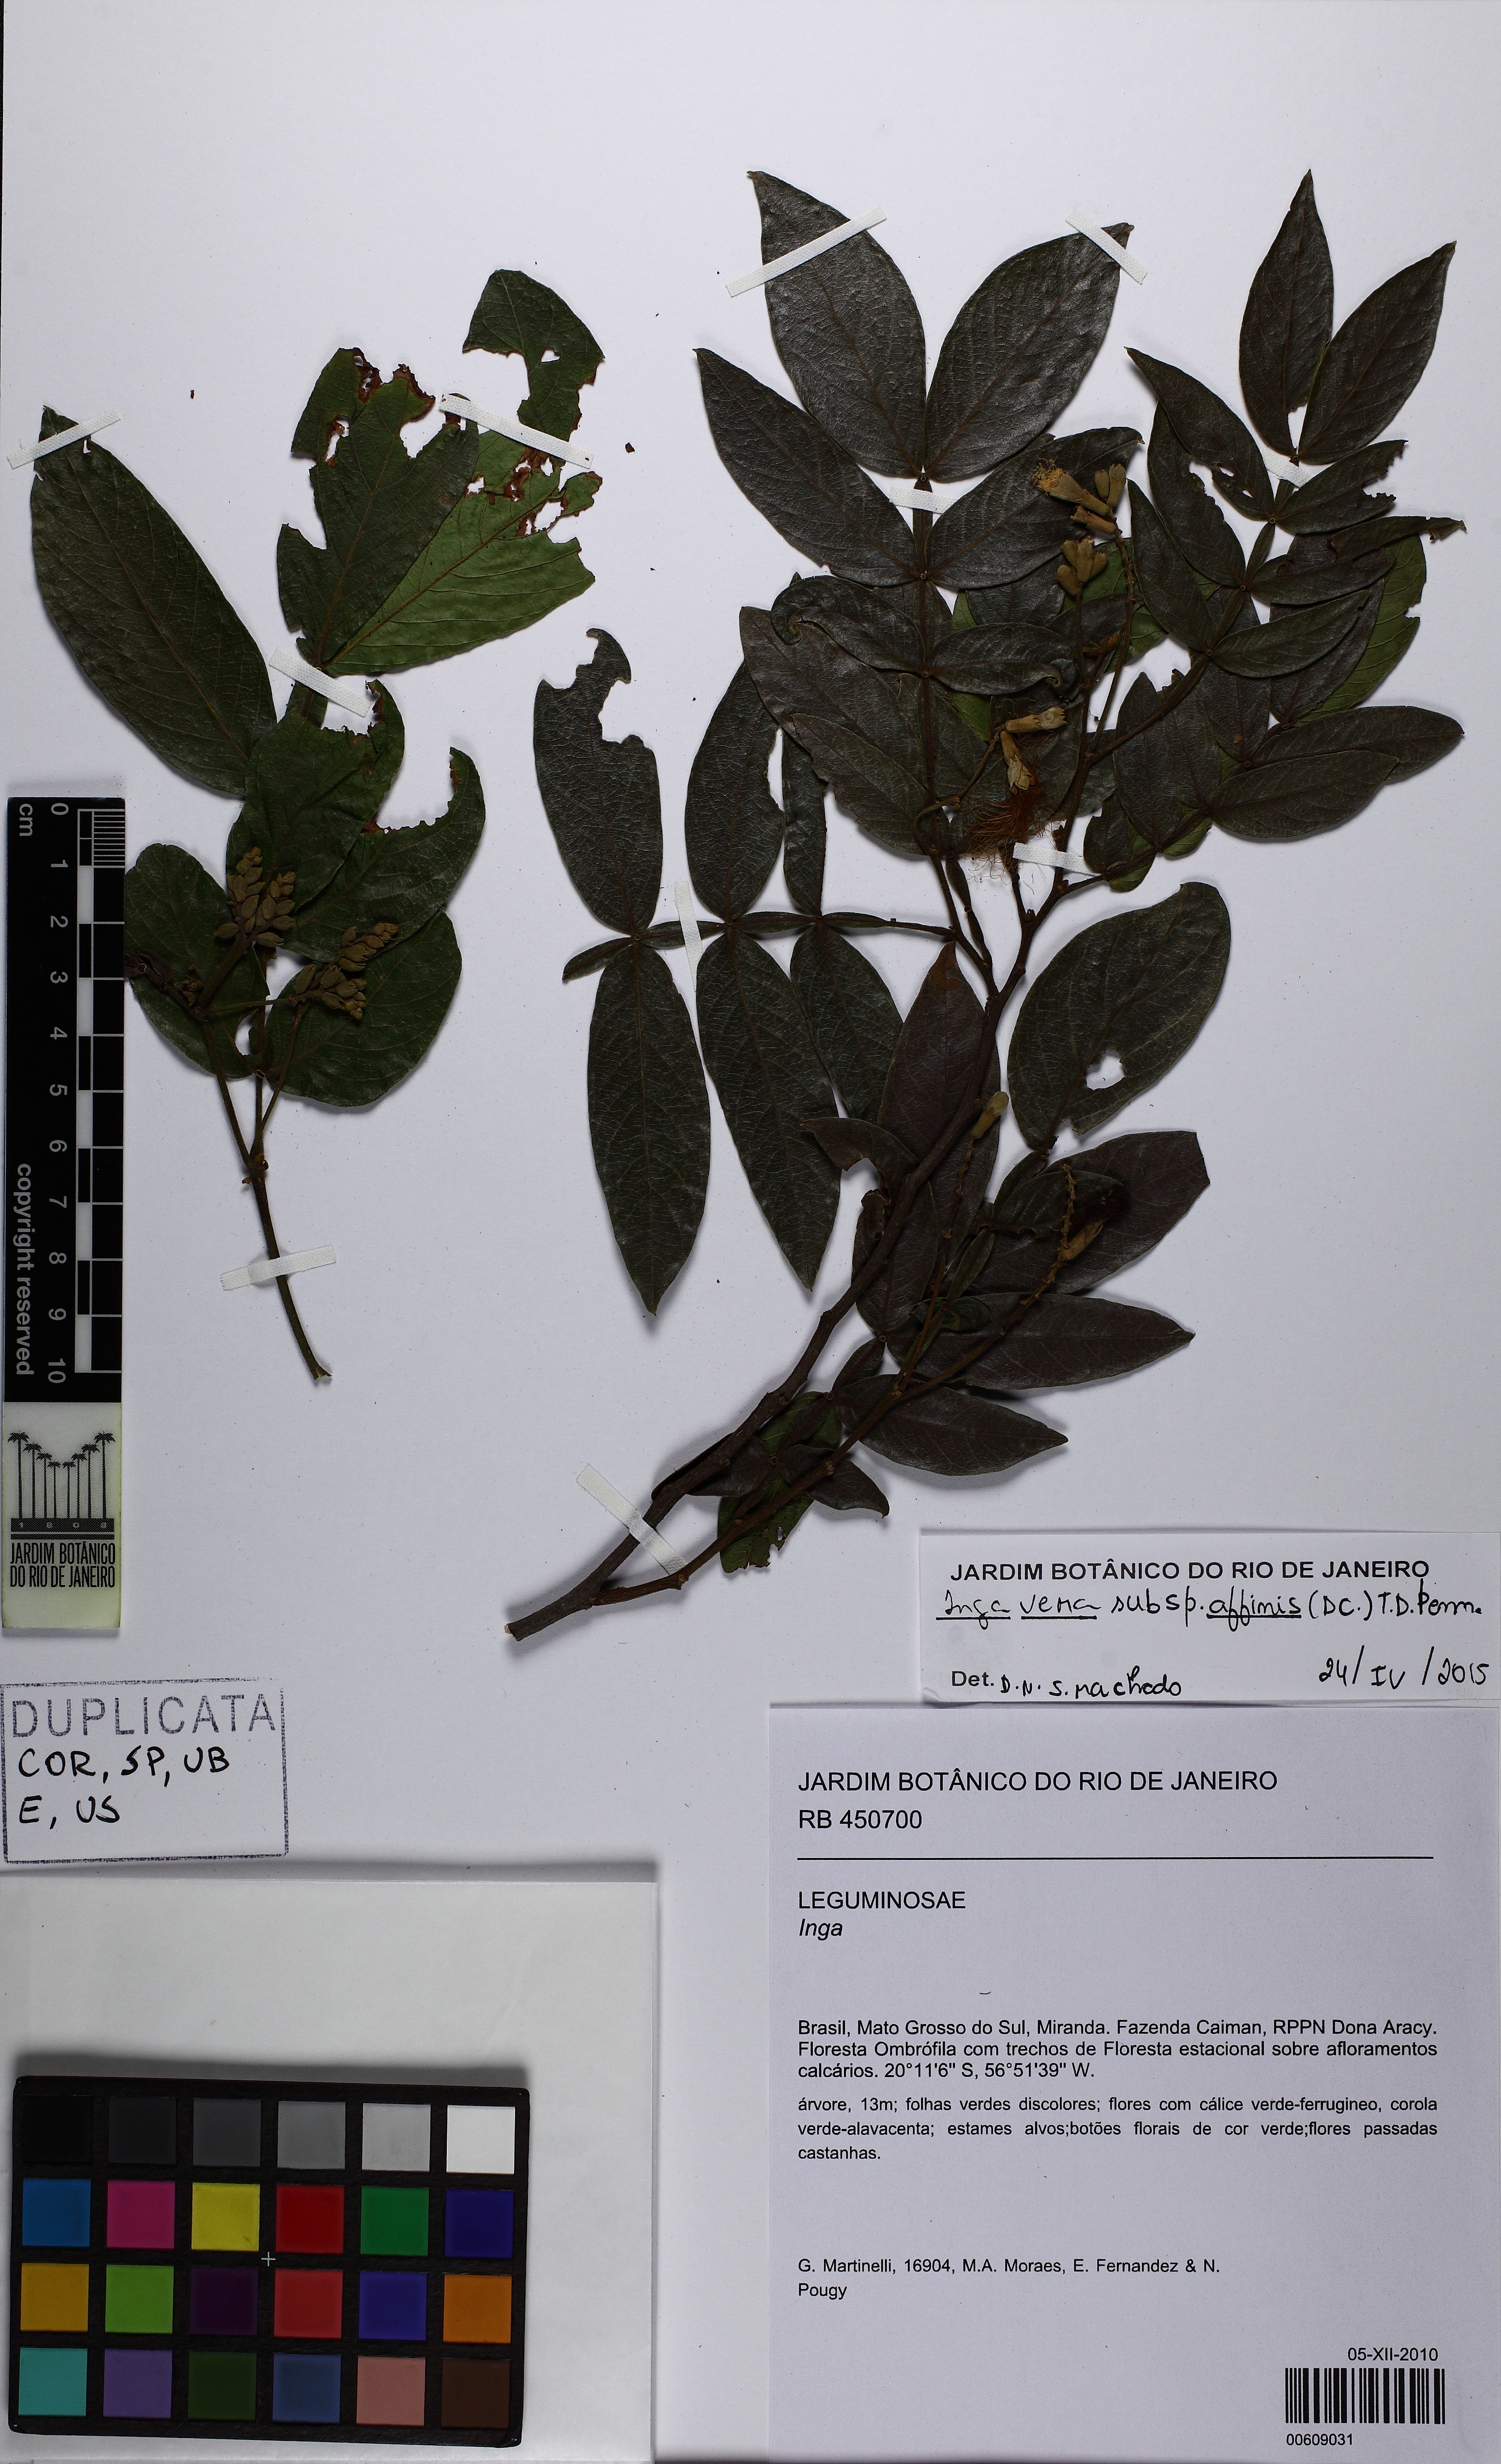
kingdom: Plantae
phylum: Tracheophyta
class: Magnoliopsida
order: Fabales
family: Fabaceae
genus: Inga
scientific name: Inga affinis
